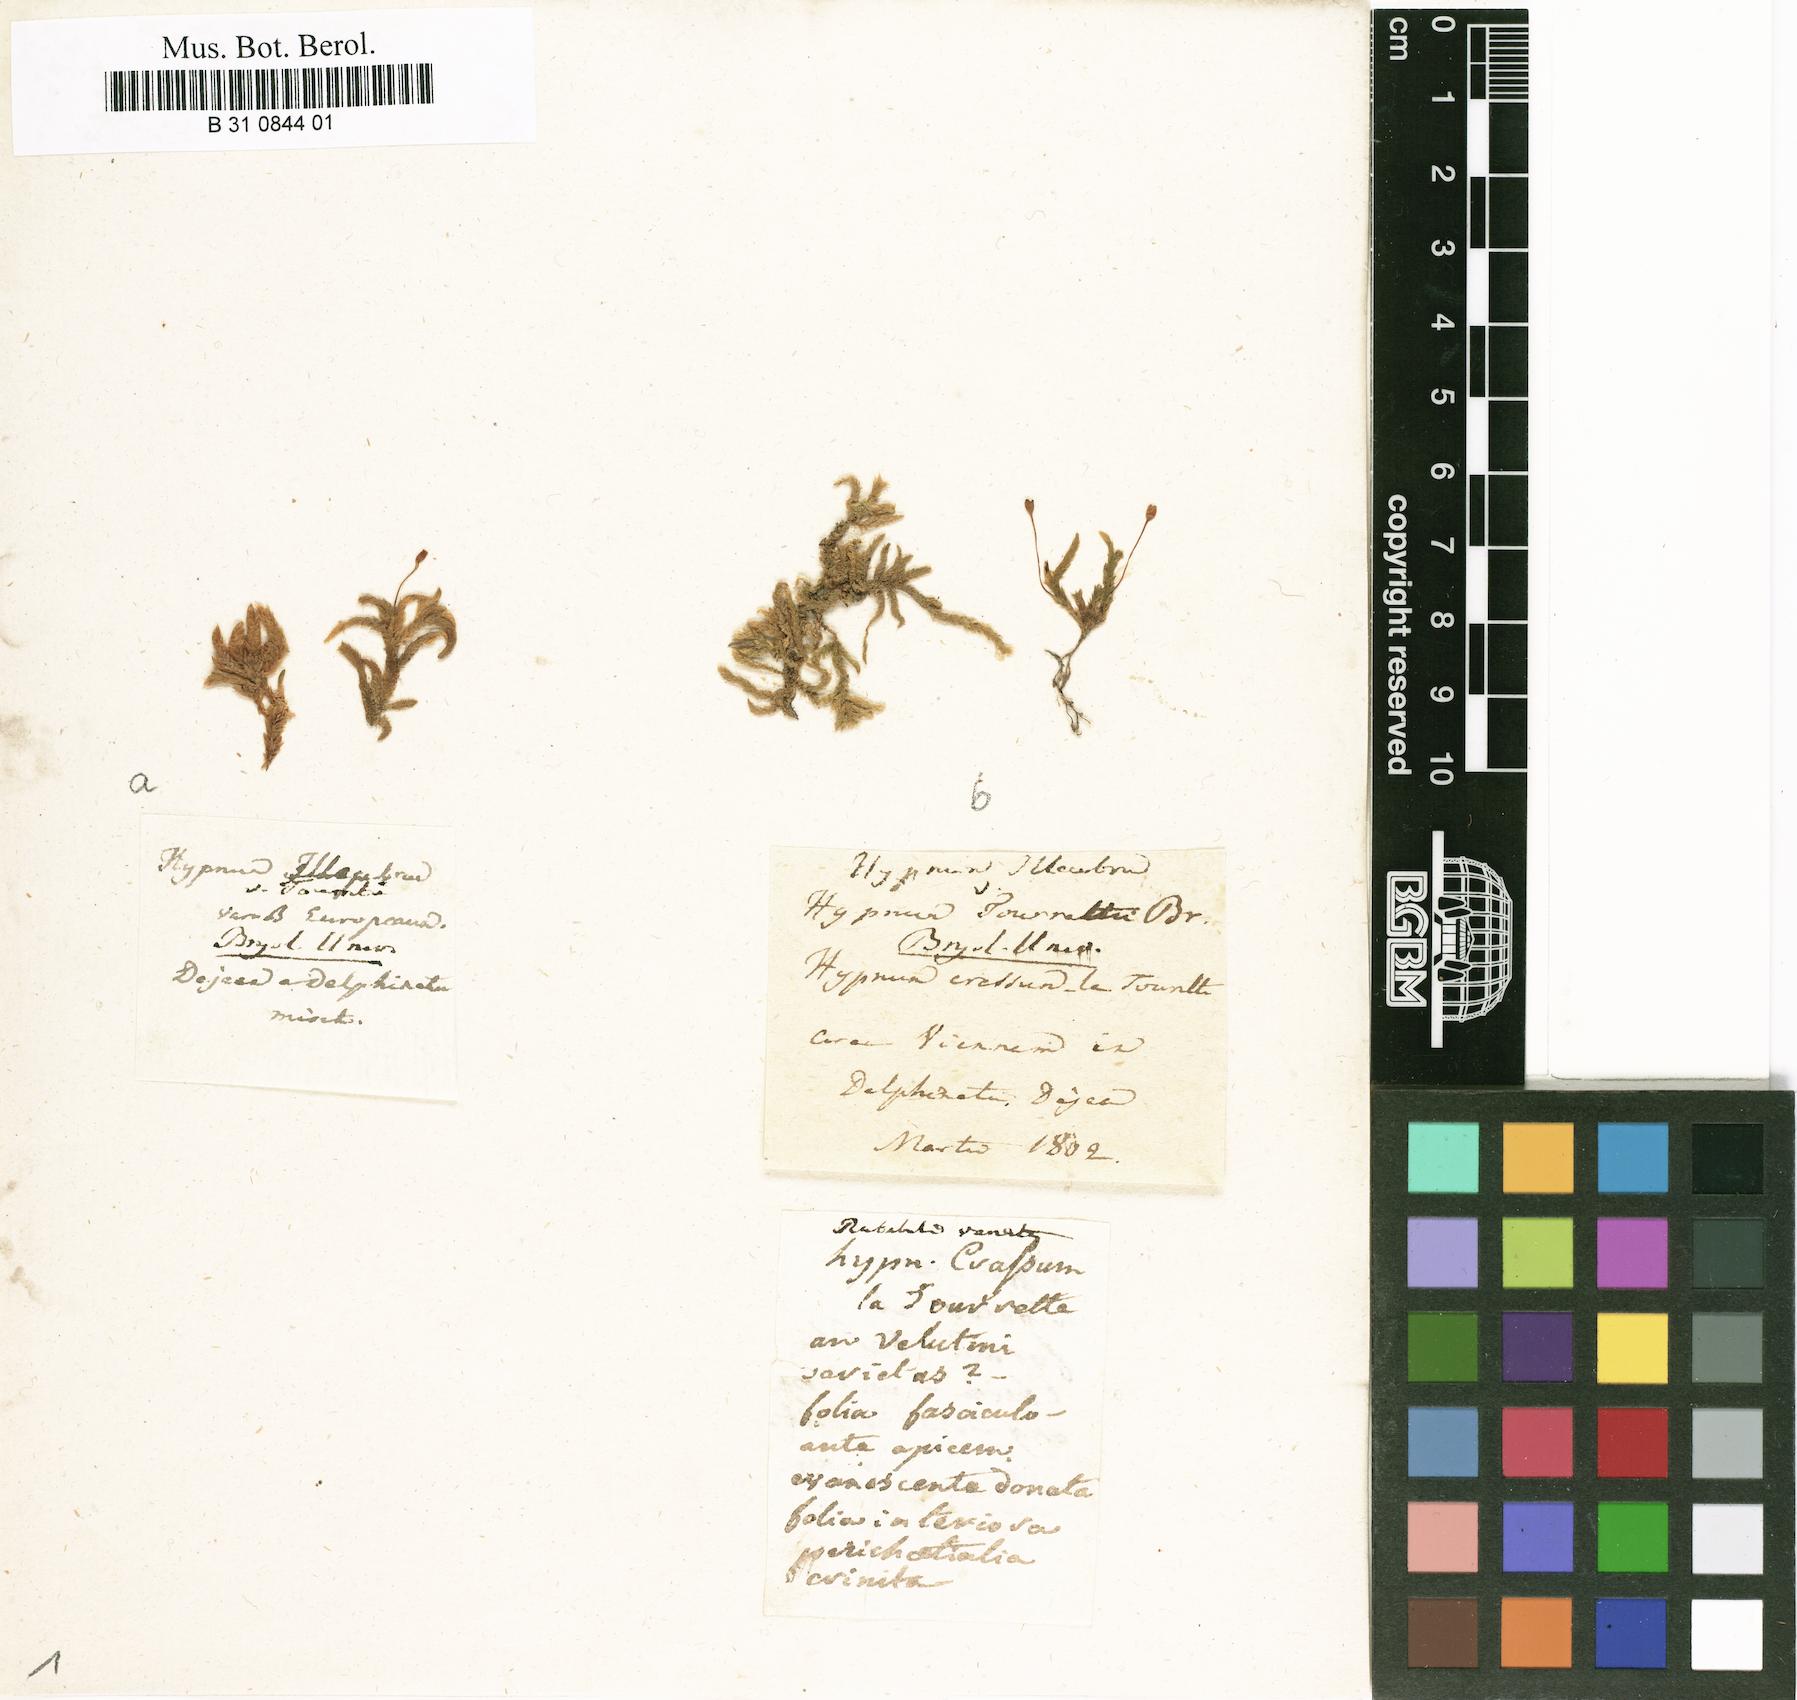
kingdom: Plantae
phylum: Bryophyta
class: Bryopsida
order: Hypnales
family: Brachytheciaceae
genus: Bryoandersonia
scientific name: Bryoandersonia illecebra
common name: Spoon-leaved moss
